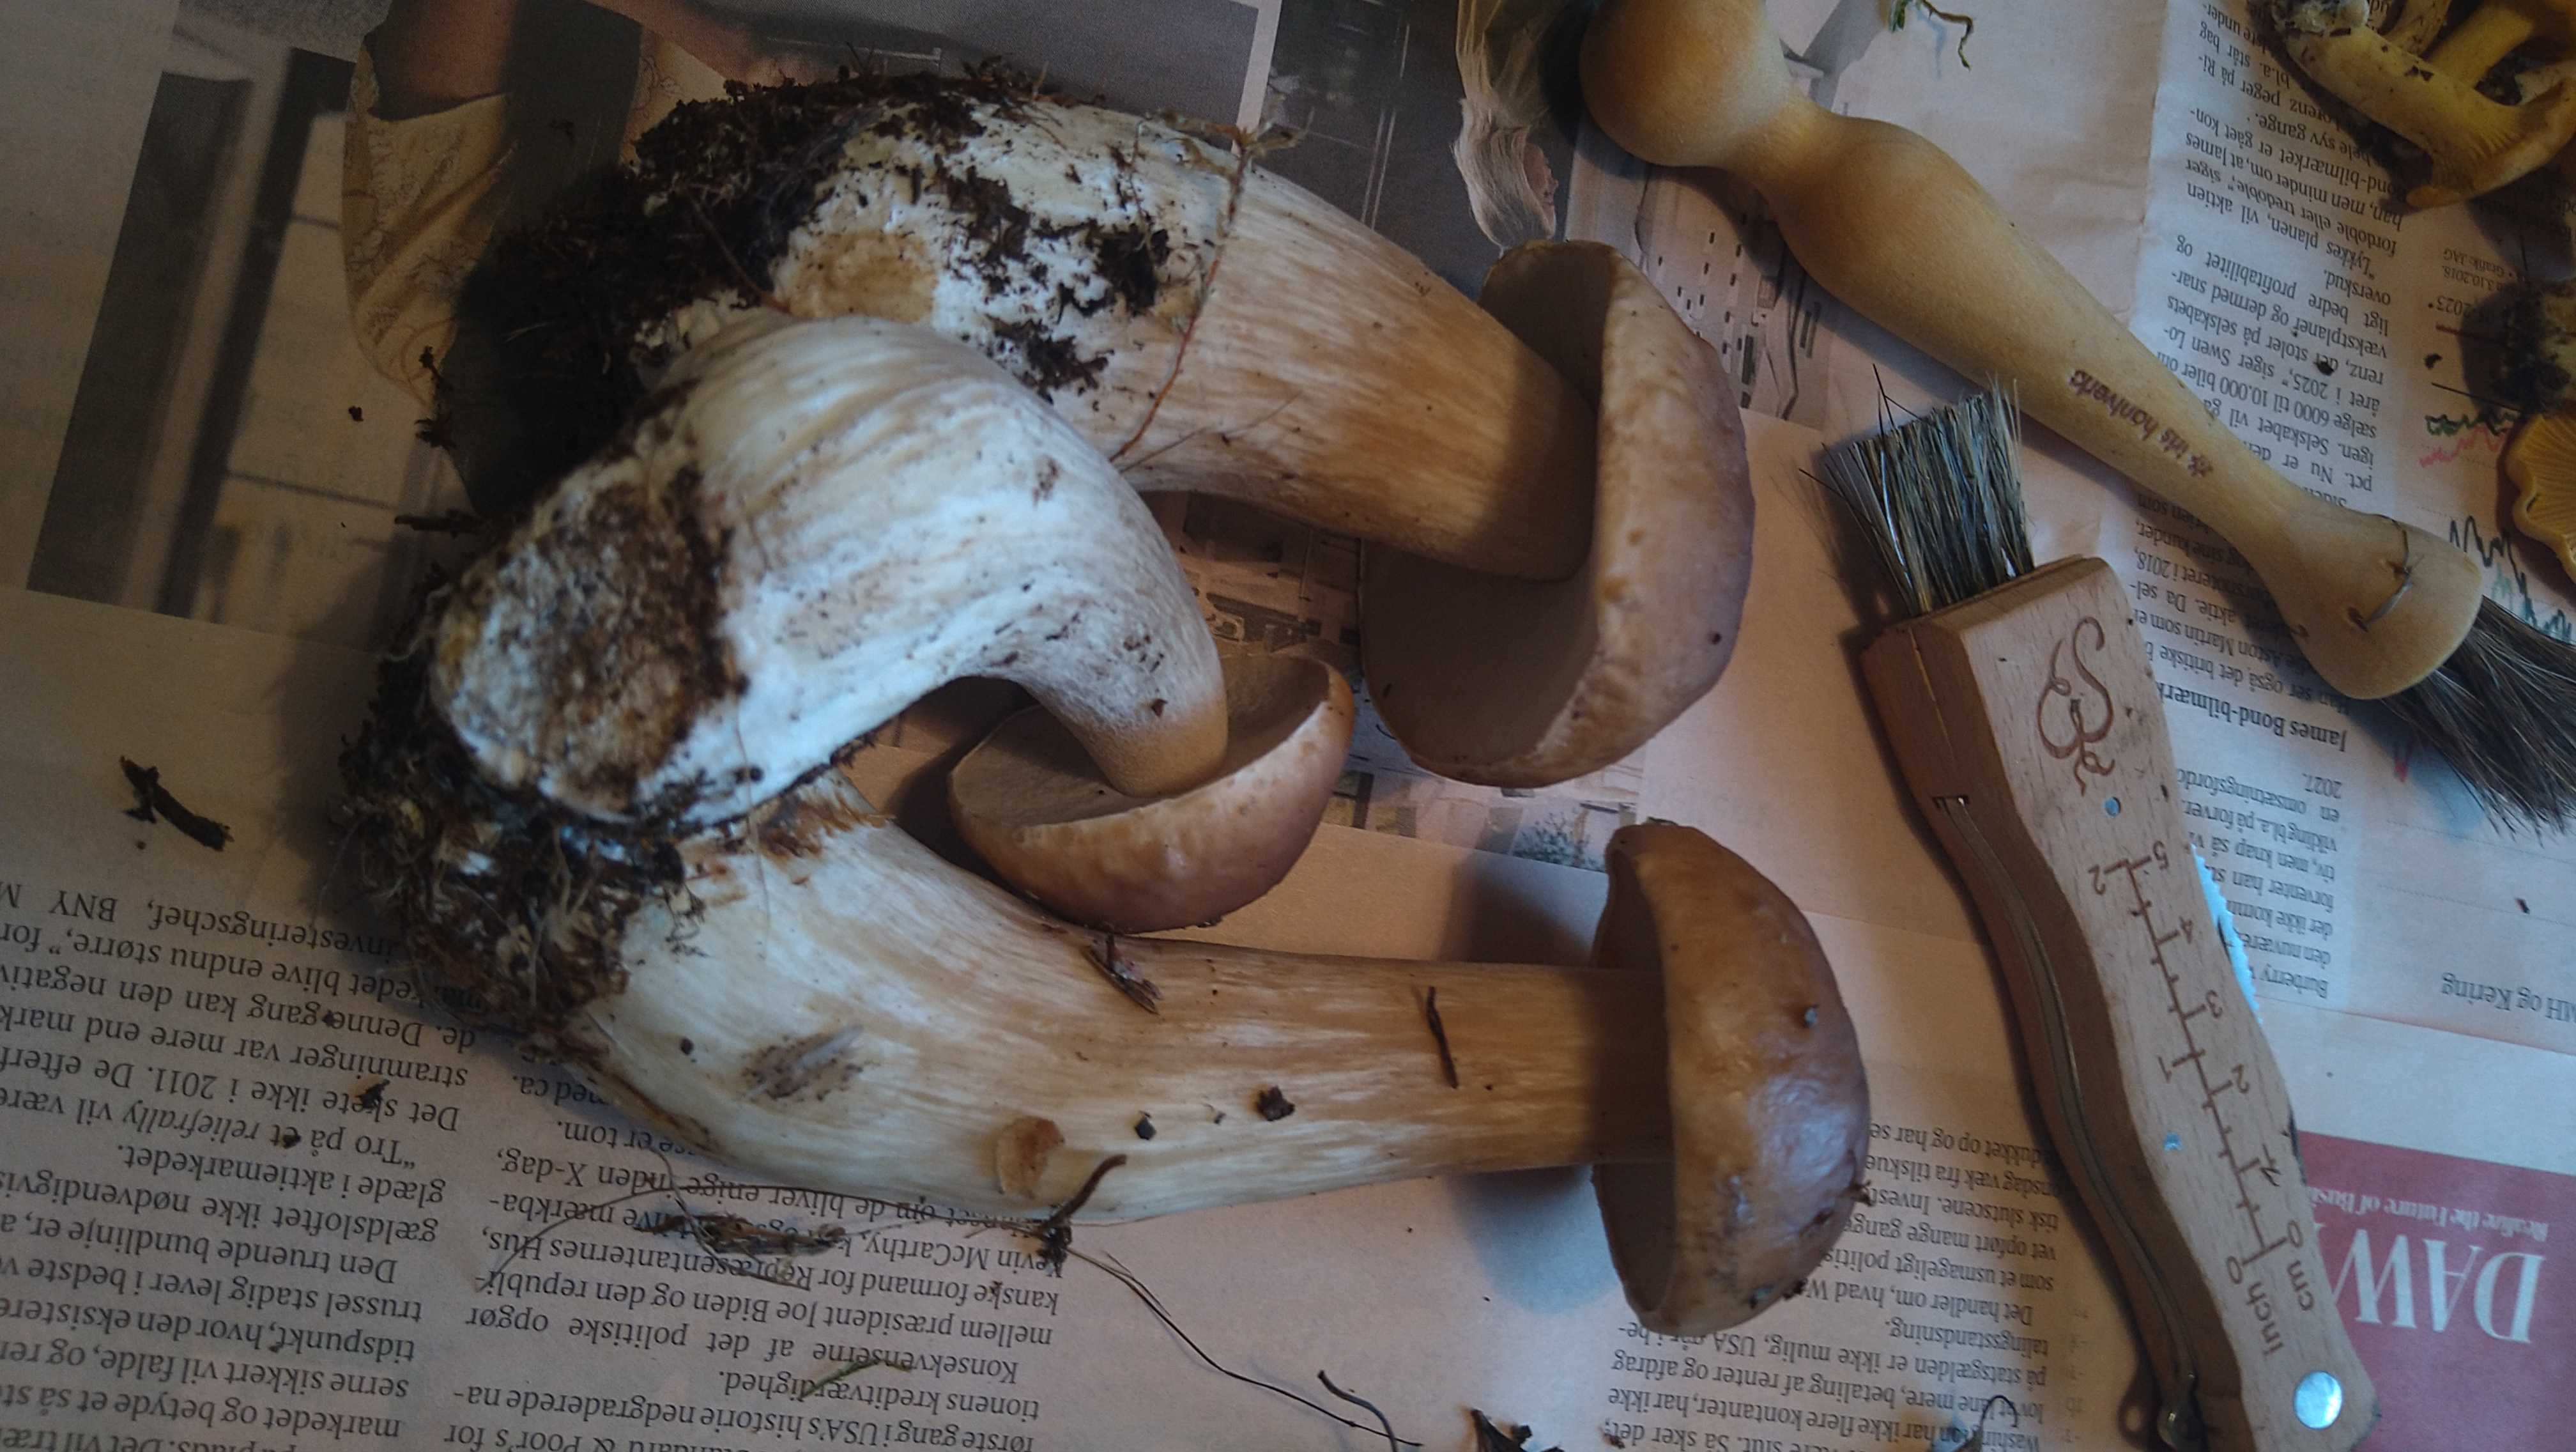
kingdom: Fungi
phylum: Basidiomycota
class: Agaricomycetes
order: Boletales
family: Boletaceae
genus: Boletus
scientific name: Boletus edulis
